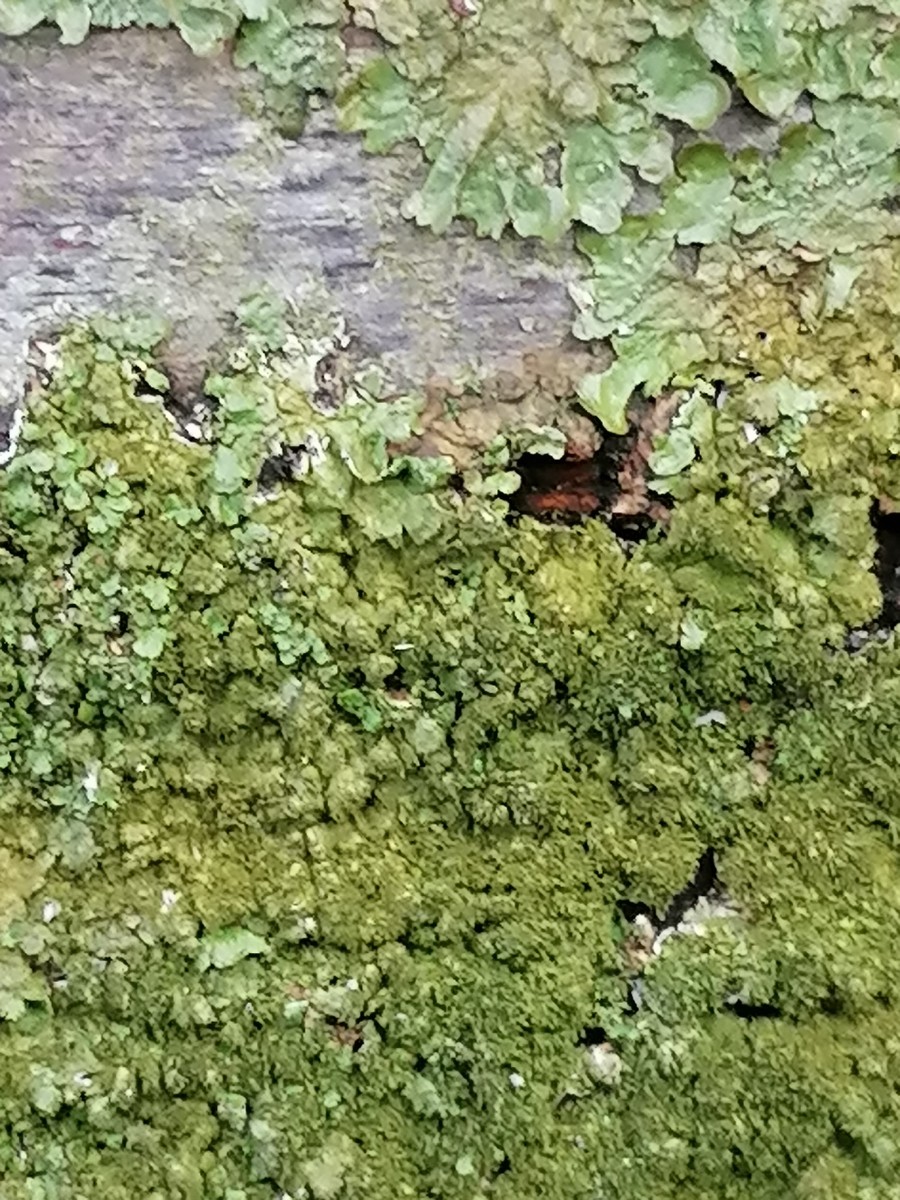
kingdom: Fungi
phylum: Ascomycota
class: Lecanoromycetes
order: Lecanorales
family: Parmeliaceae
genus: Melanelixia
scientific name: Melanelixia glabratula
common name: glinsende skållav
